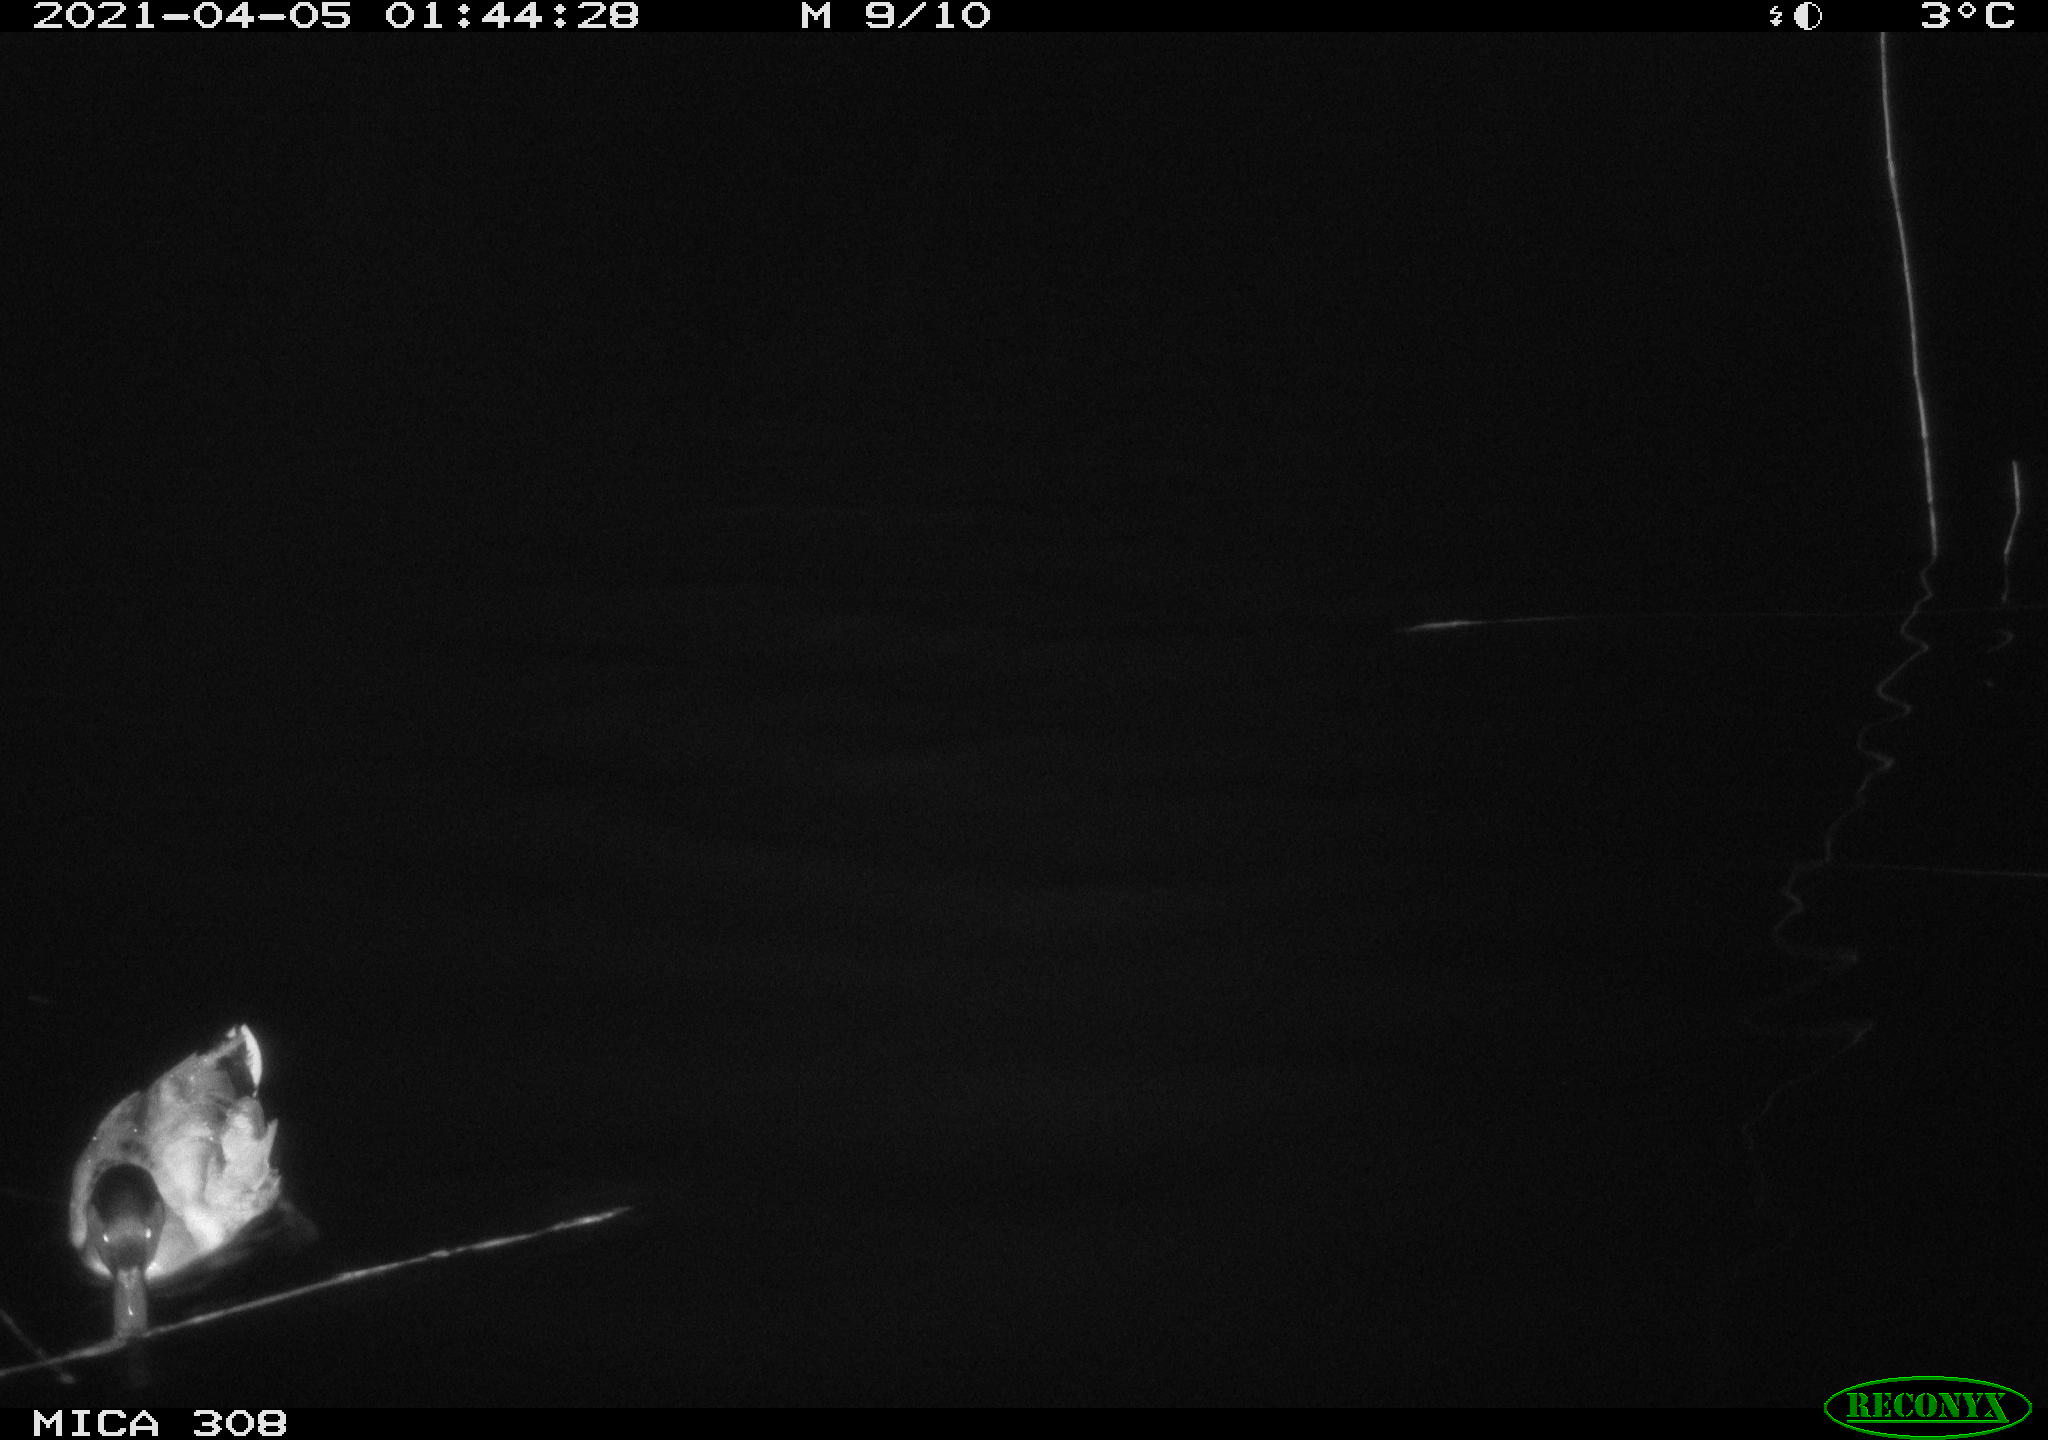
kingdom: Animalia
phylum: Chordata
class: Aves
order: Anseriformes
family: Anatidae
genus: Anas
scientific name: Anas platyrhynchos
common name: Mallard
